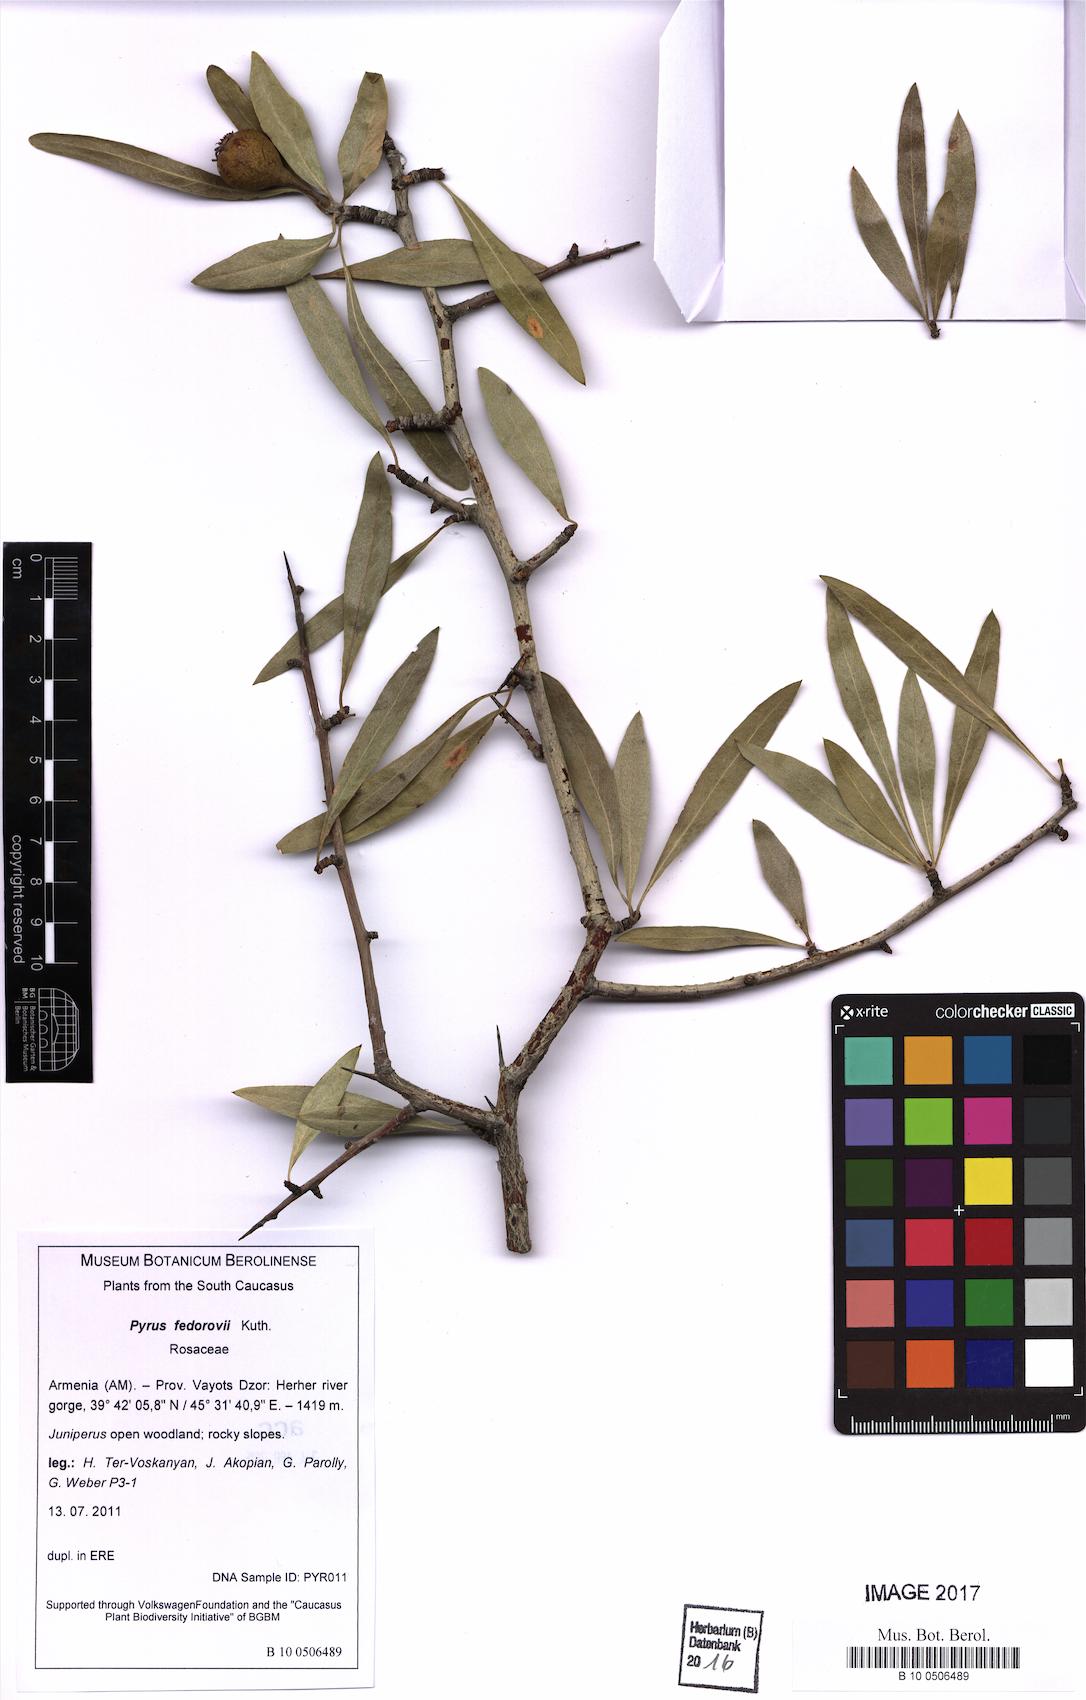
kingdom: Plantae
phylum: Tracheophyta
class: Magnoliopsida
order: Rosales
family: Rosaceae
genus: Pyrus
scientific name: Pyrus fedorovii
